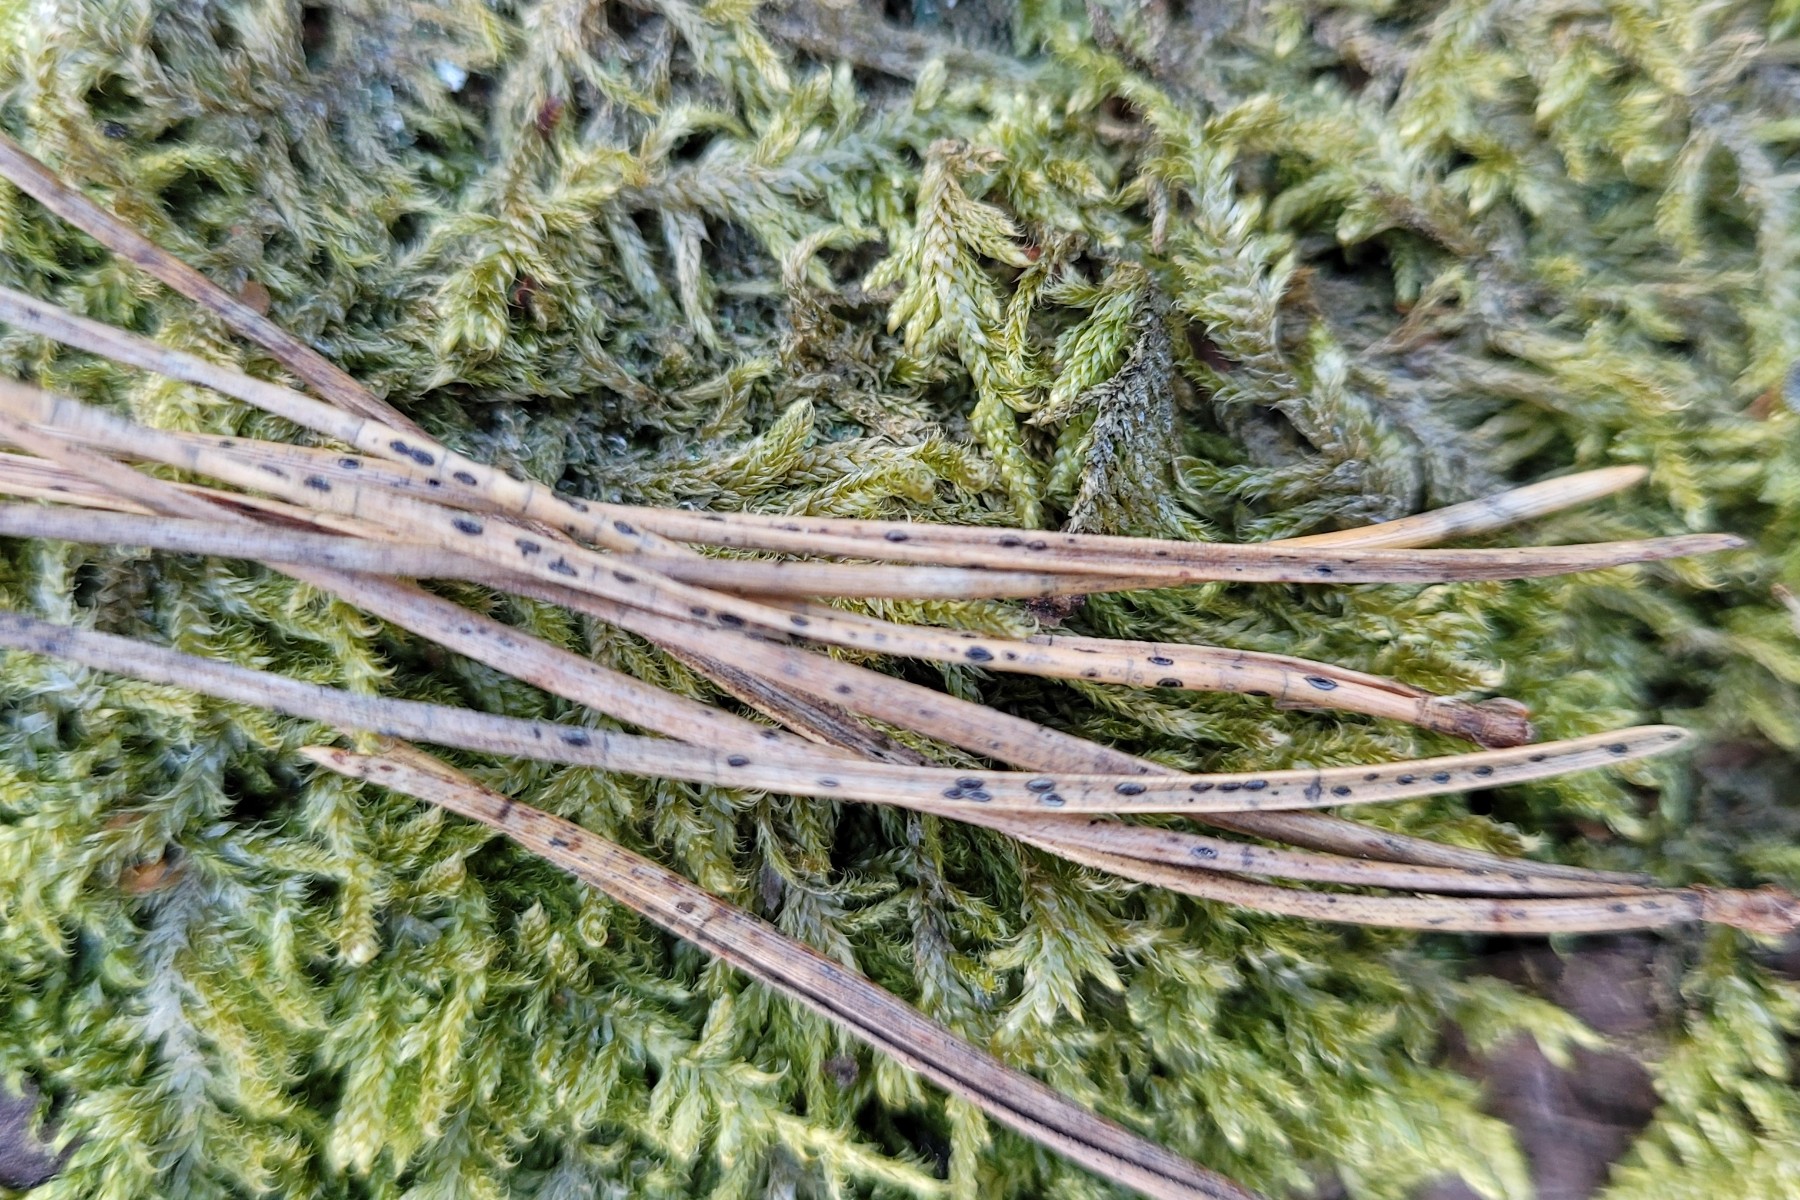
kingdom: Fungi
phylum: Ascomycota
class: Leotiomycetes
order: Rhytismatales
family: Rhytismataceae
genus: Lophodermium
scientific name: Lophodermium pinastri
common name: fyrre-fureplet
